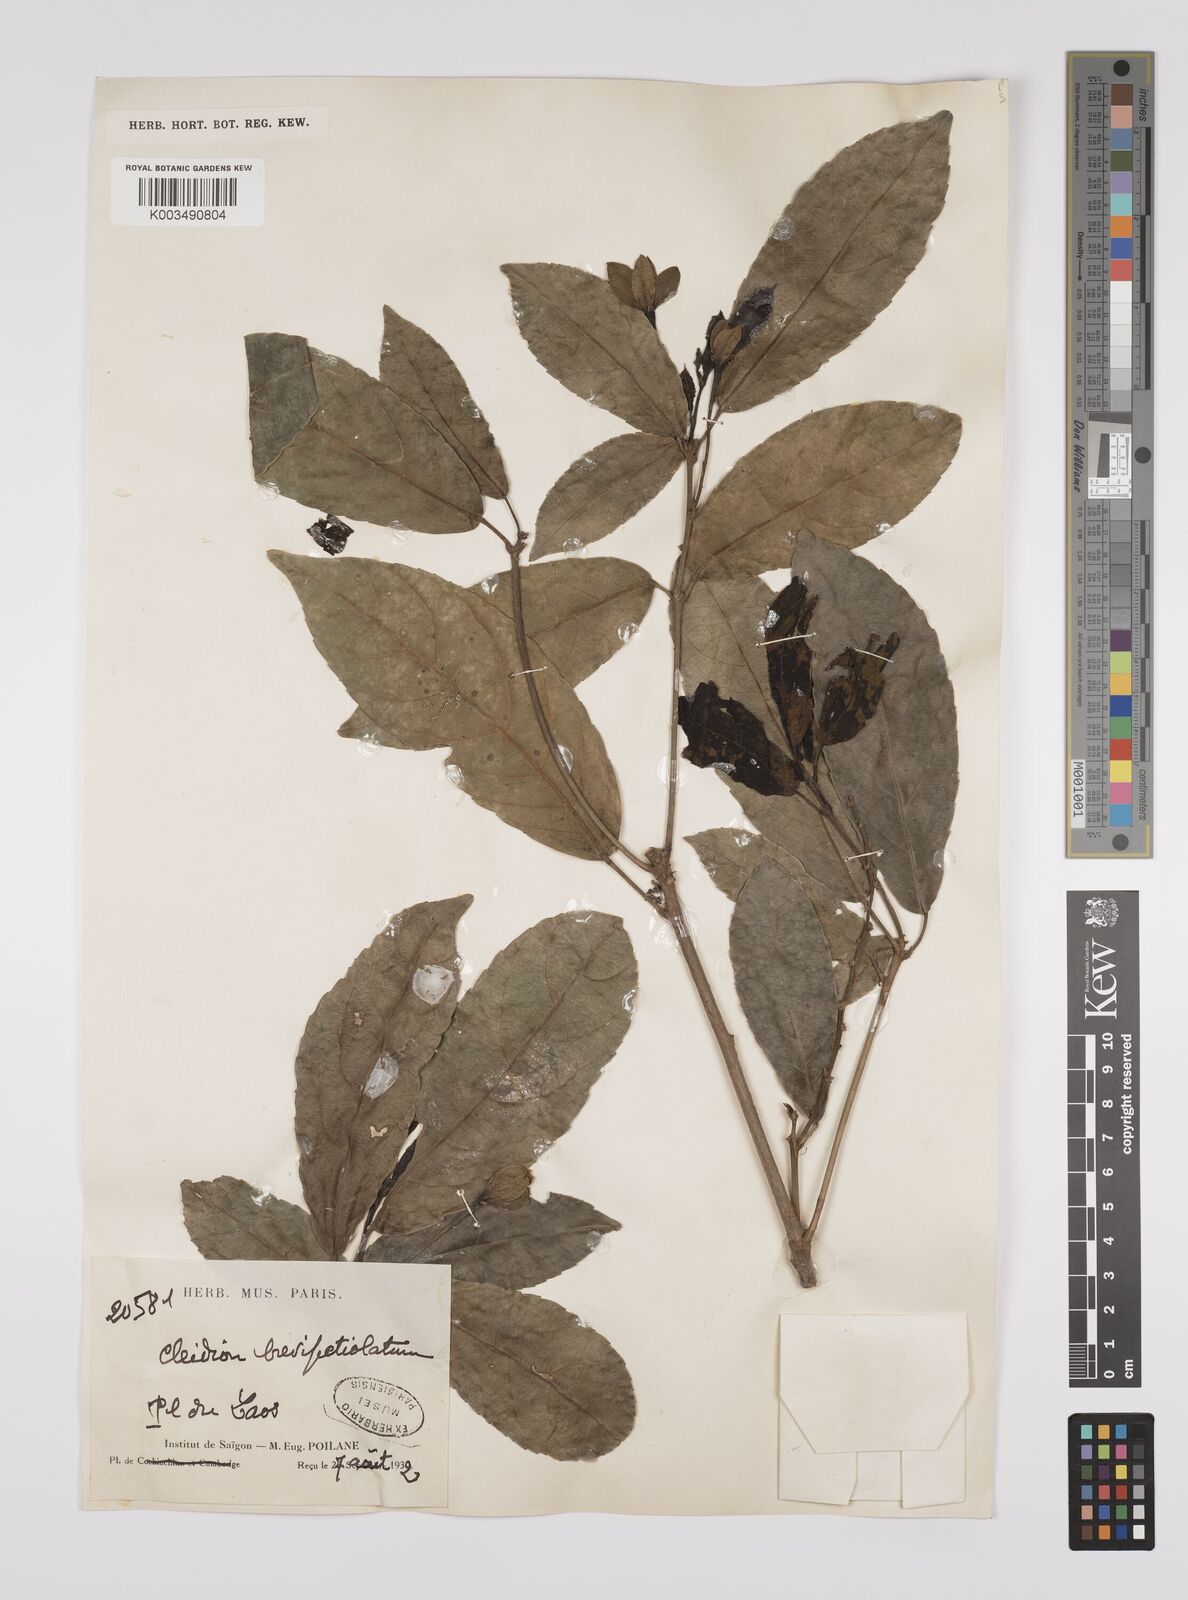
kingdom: Plantae
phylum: Tracheophyta
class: Magnoliopsida
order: Malpighiales
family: Euphorbiaceae
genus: Cleidion
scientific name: Cleidion brevipetiolatum
